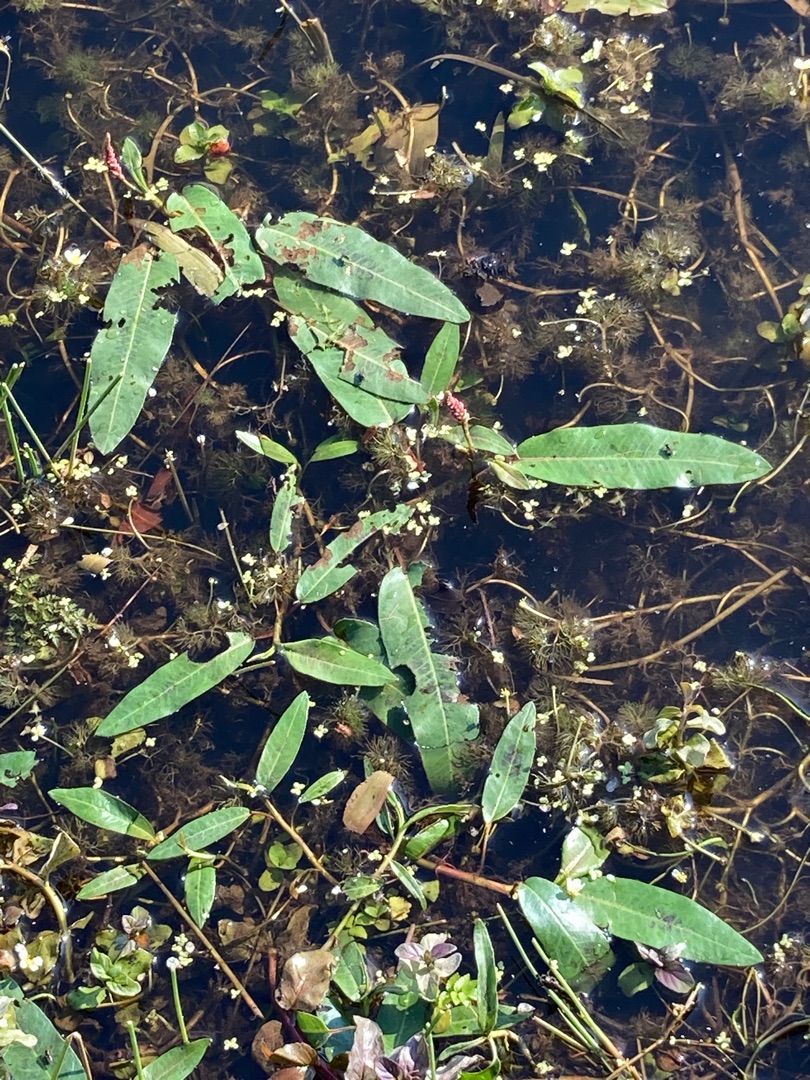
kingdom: Plantae
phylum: Tracheophyta
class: Magnoliopsida
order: Caryophyllales
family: Polygonaceae
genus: Persicaria
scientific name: Persicaria amphibia
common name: Vand-pileurt
